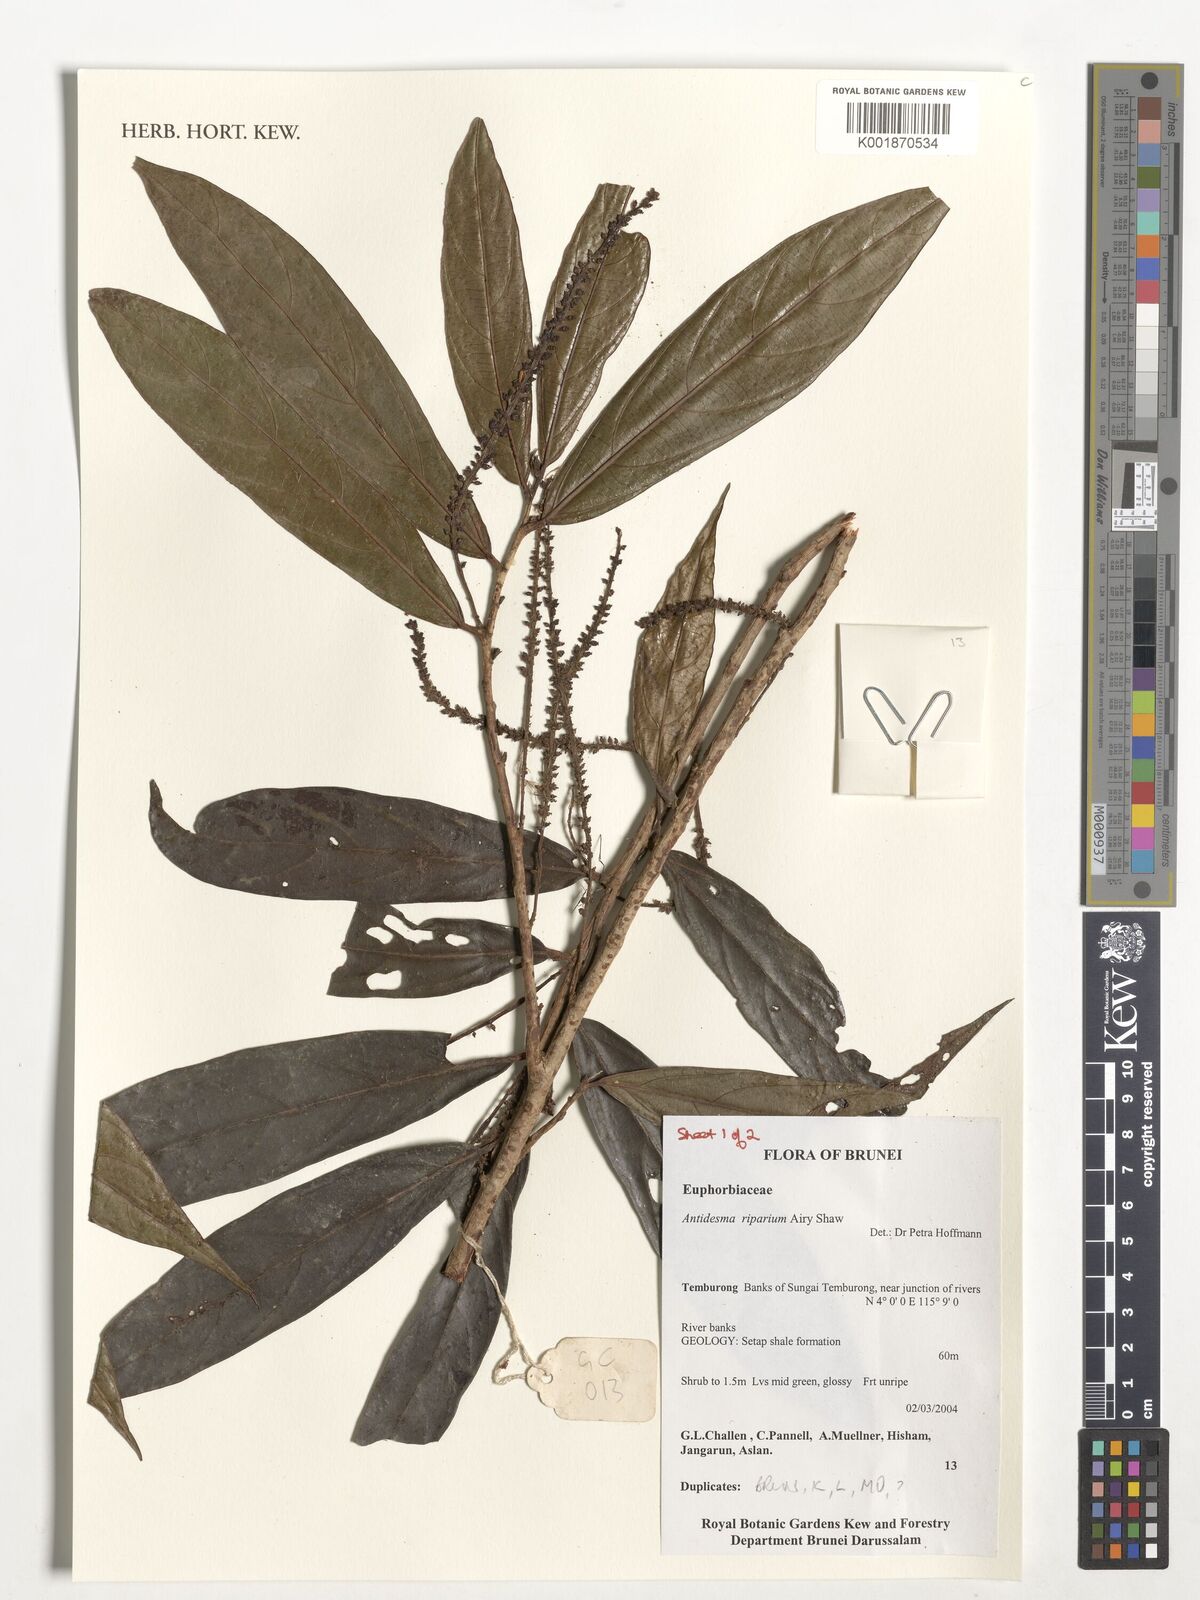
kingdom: Plantae
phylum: Tracheophyta
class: Magnoliopsida
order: Malpighiales
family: Phyllanthaceae
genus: Antidesma
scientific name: Antidesma riparium
